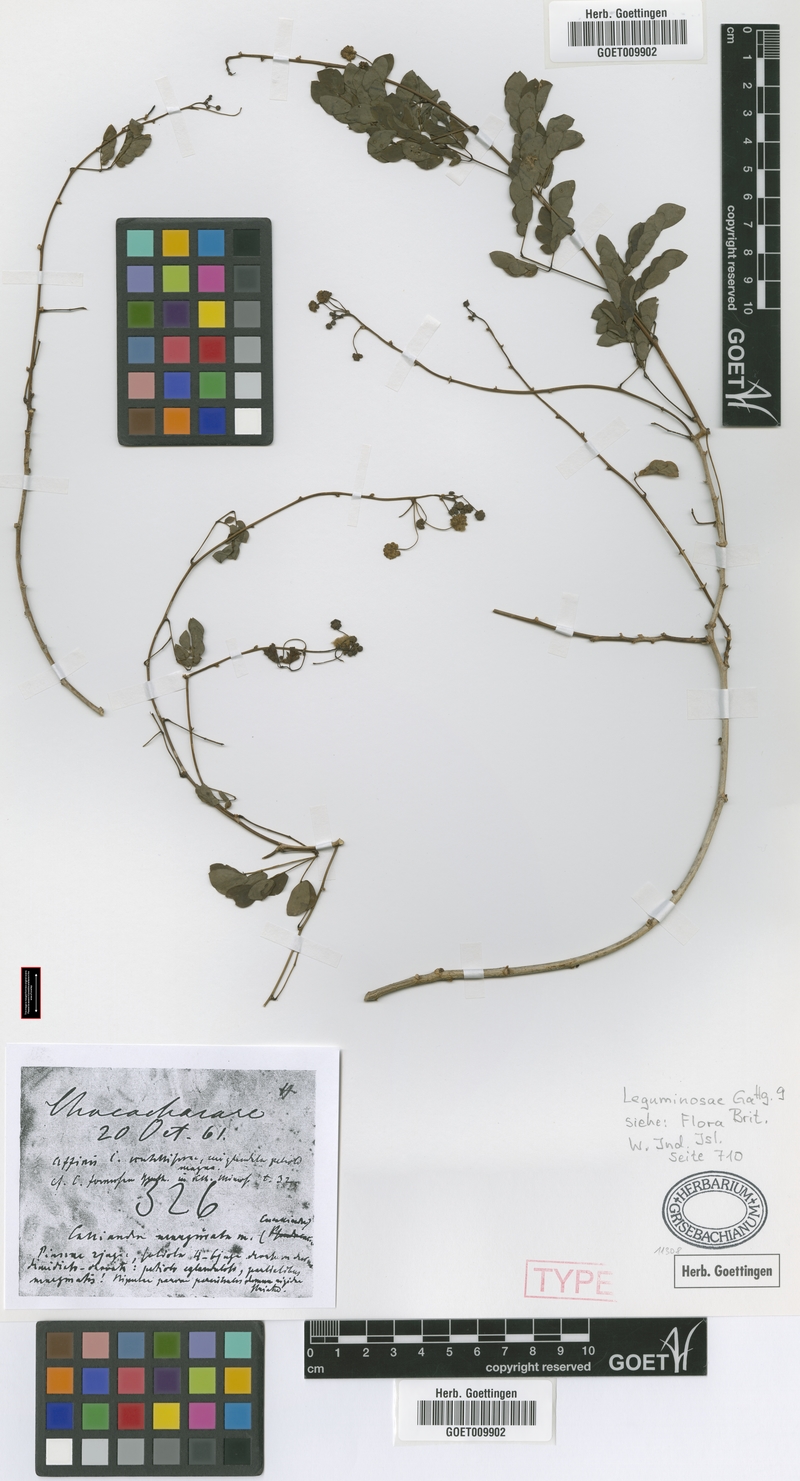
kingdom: Plantae
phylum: Tracheophyta
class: Magnoliopsida
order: Fabales
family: Fabaceae
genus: Zapoteca
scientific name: Zapoteca formosa
